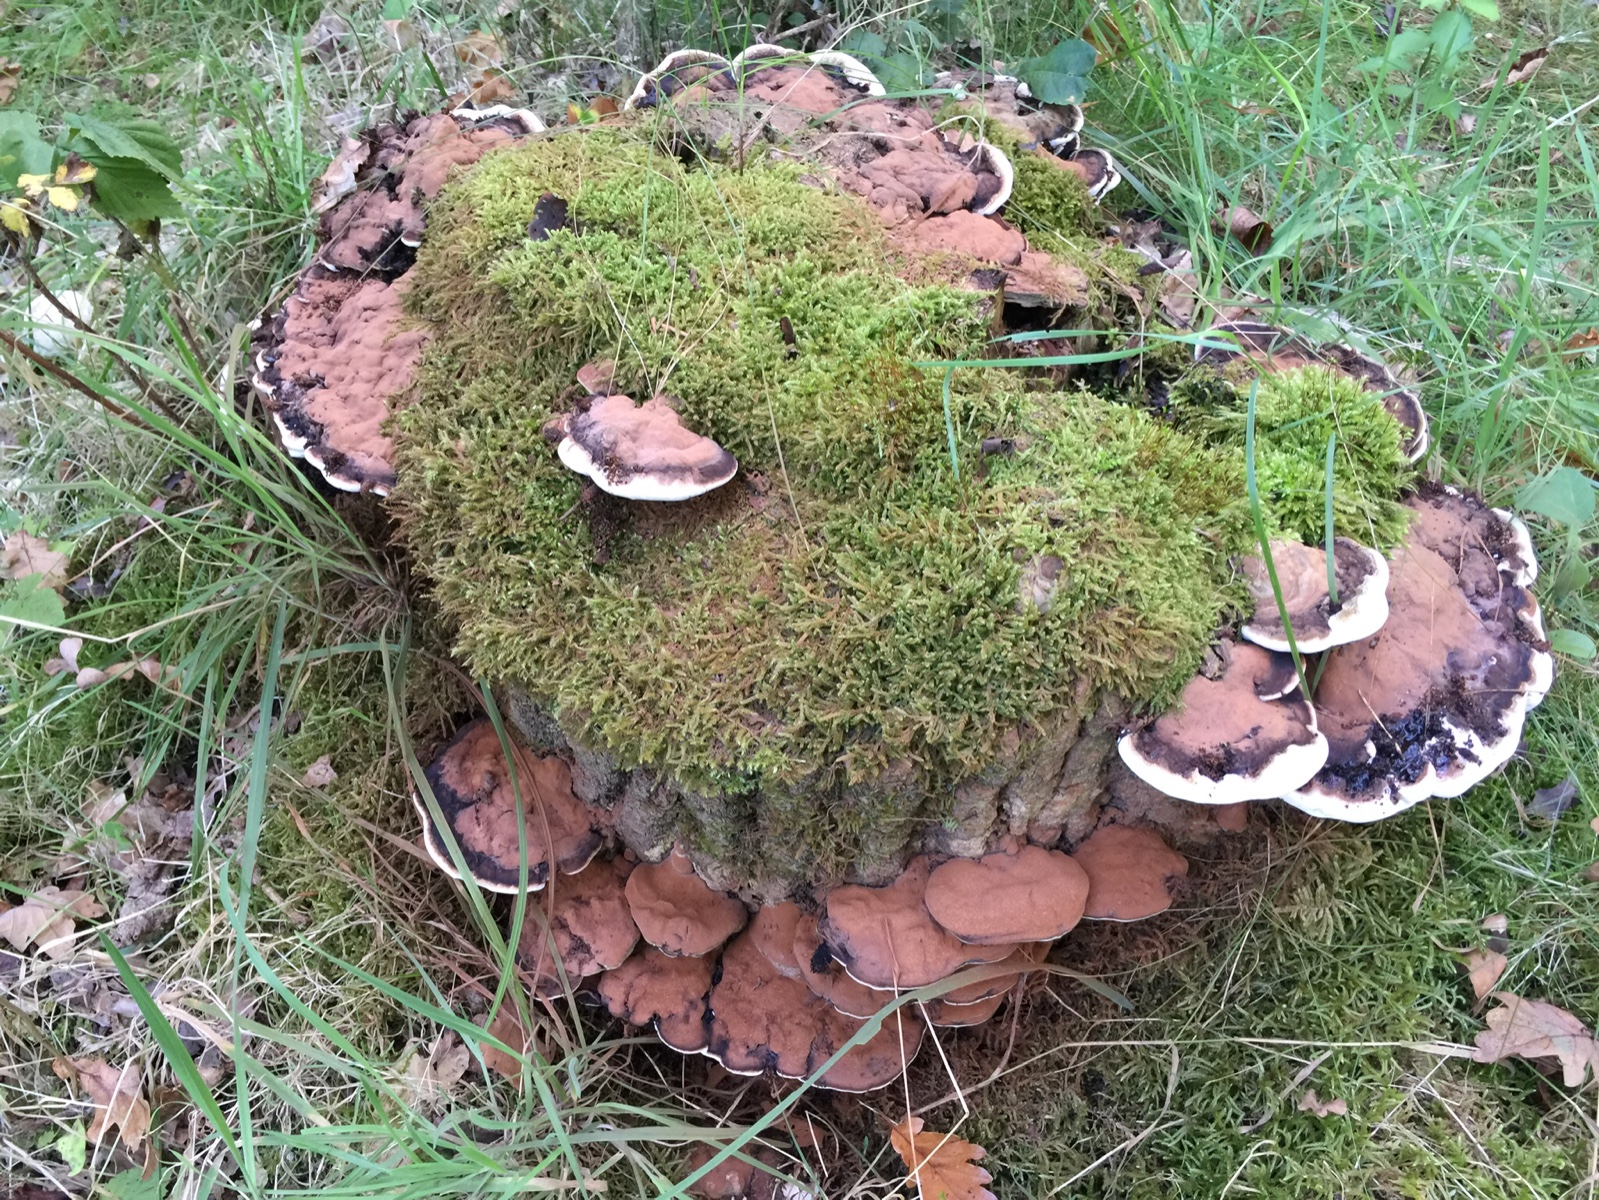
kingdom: Fungi
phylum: Basidiomycota
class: Agaricomycetes
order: Polyporales
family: Polyporaceae
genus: Ganoderma
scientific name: Ganoderma applanatum
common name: flad lakporesvamp
